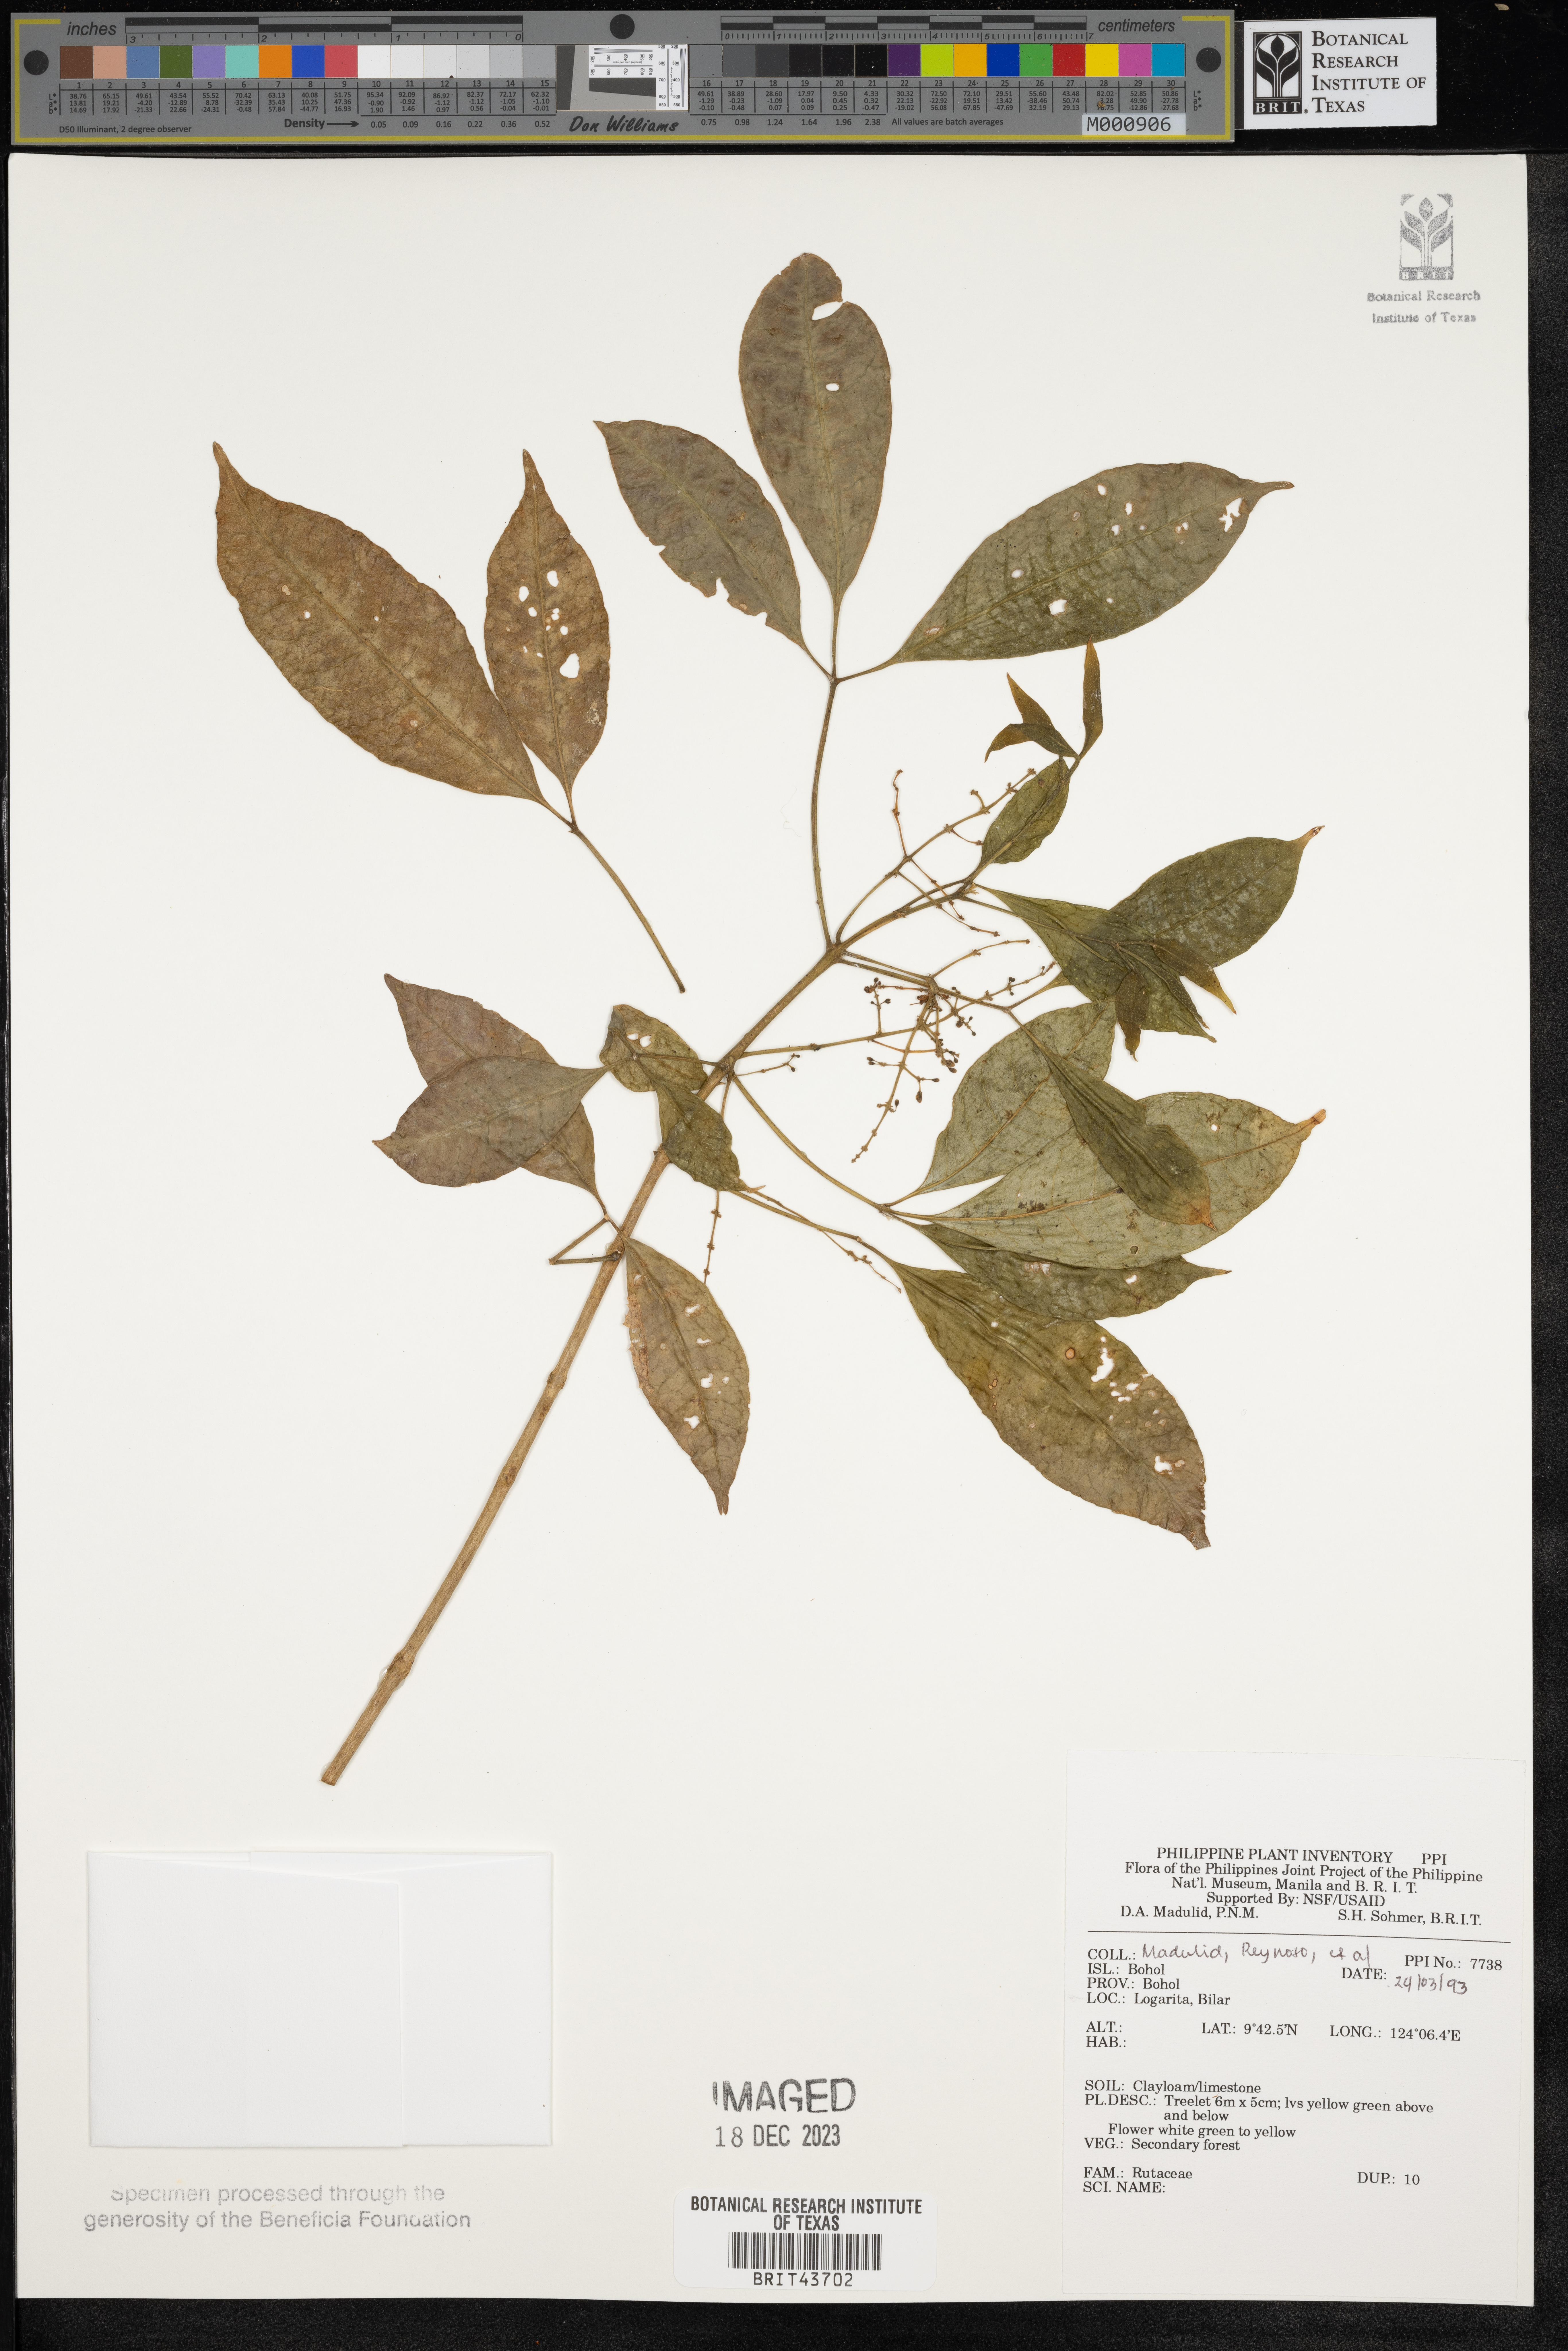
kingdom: Plantae
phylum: Tracheophyta
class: Magnoliopsida
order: Sapindales
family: Rutaceae
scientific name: Rutaceae
